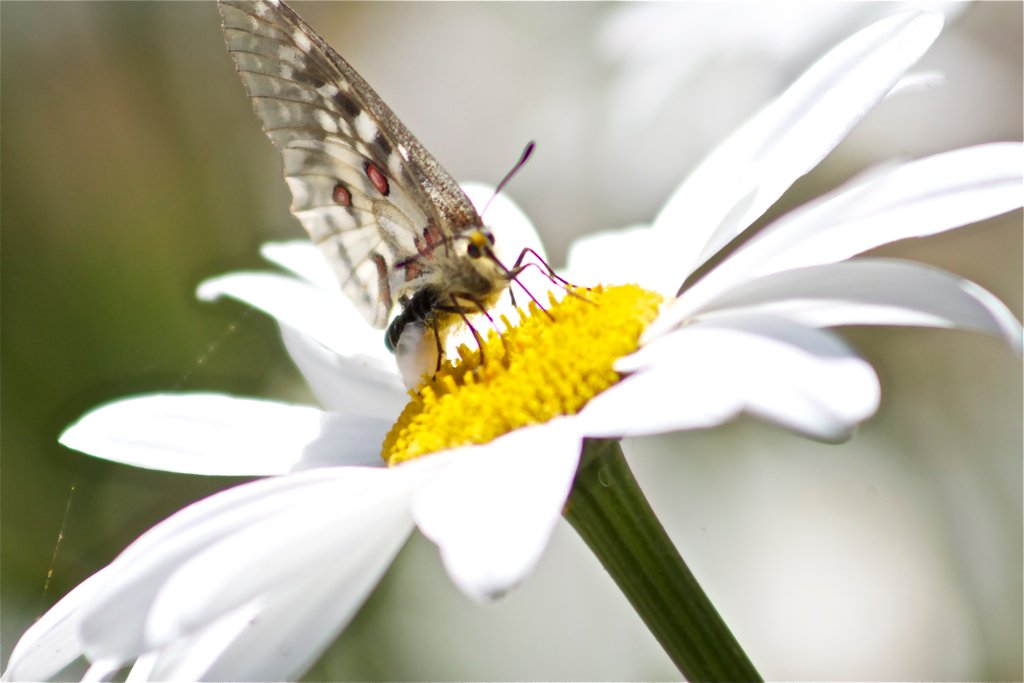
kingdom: Animalia
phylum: Arthropoda
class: Insecta
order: Lepidoptera
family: Papilionidae
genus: Parnassius
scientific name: Parnassius clodius
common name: Clodius Parnassian
